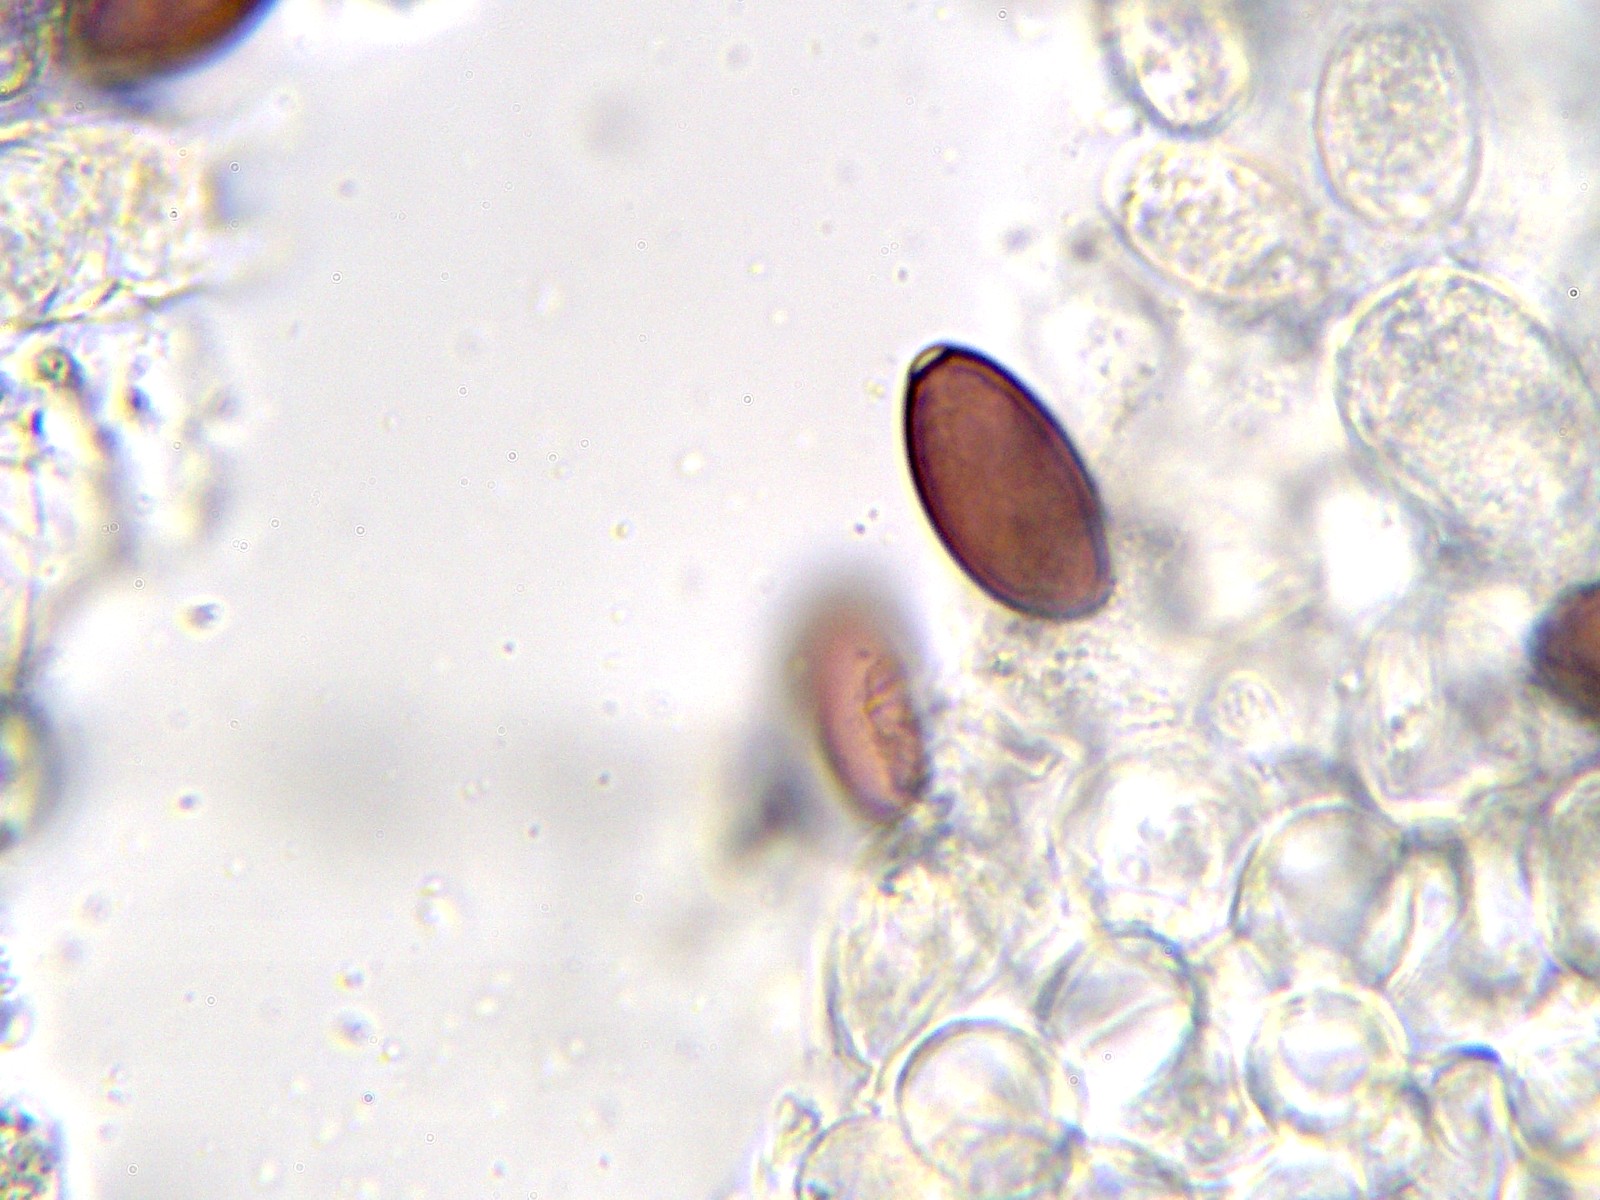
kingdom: Fungi
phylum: Basidiomycota
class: Agaricomycetes
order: Agaricales
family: Strophariaceae
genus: Protostropharia
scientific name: Protostropharia semiglobata
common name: halvkugleformet bredblad
